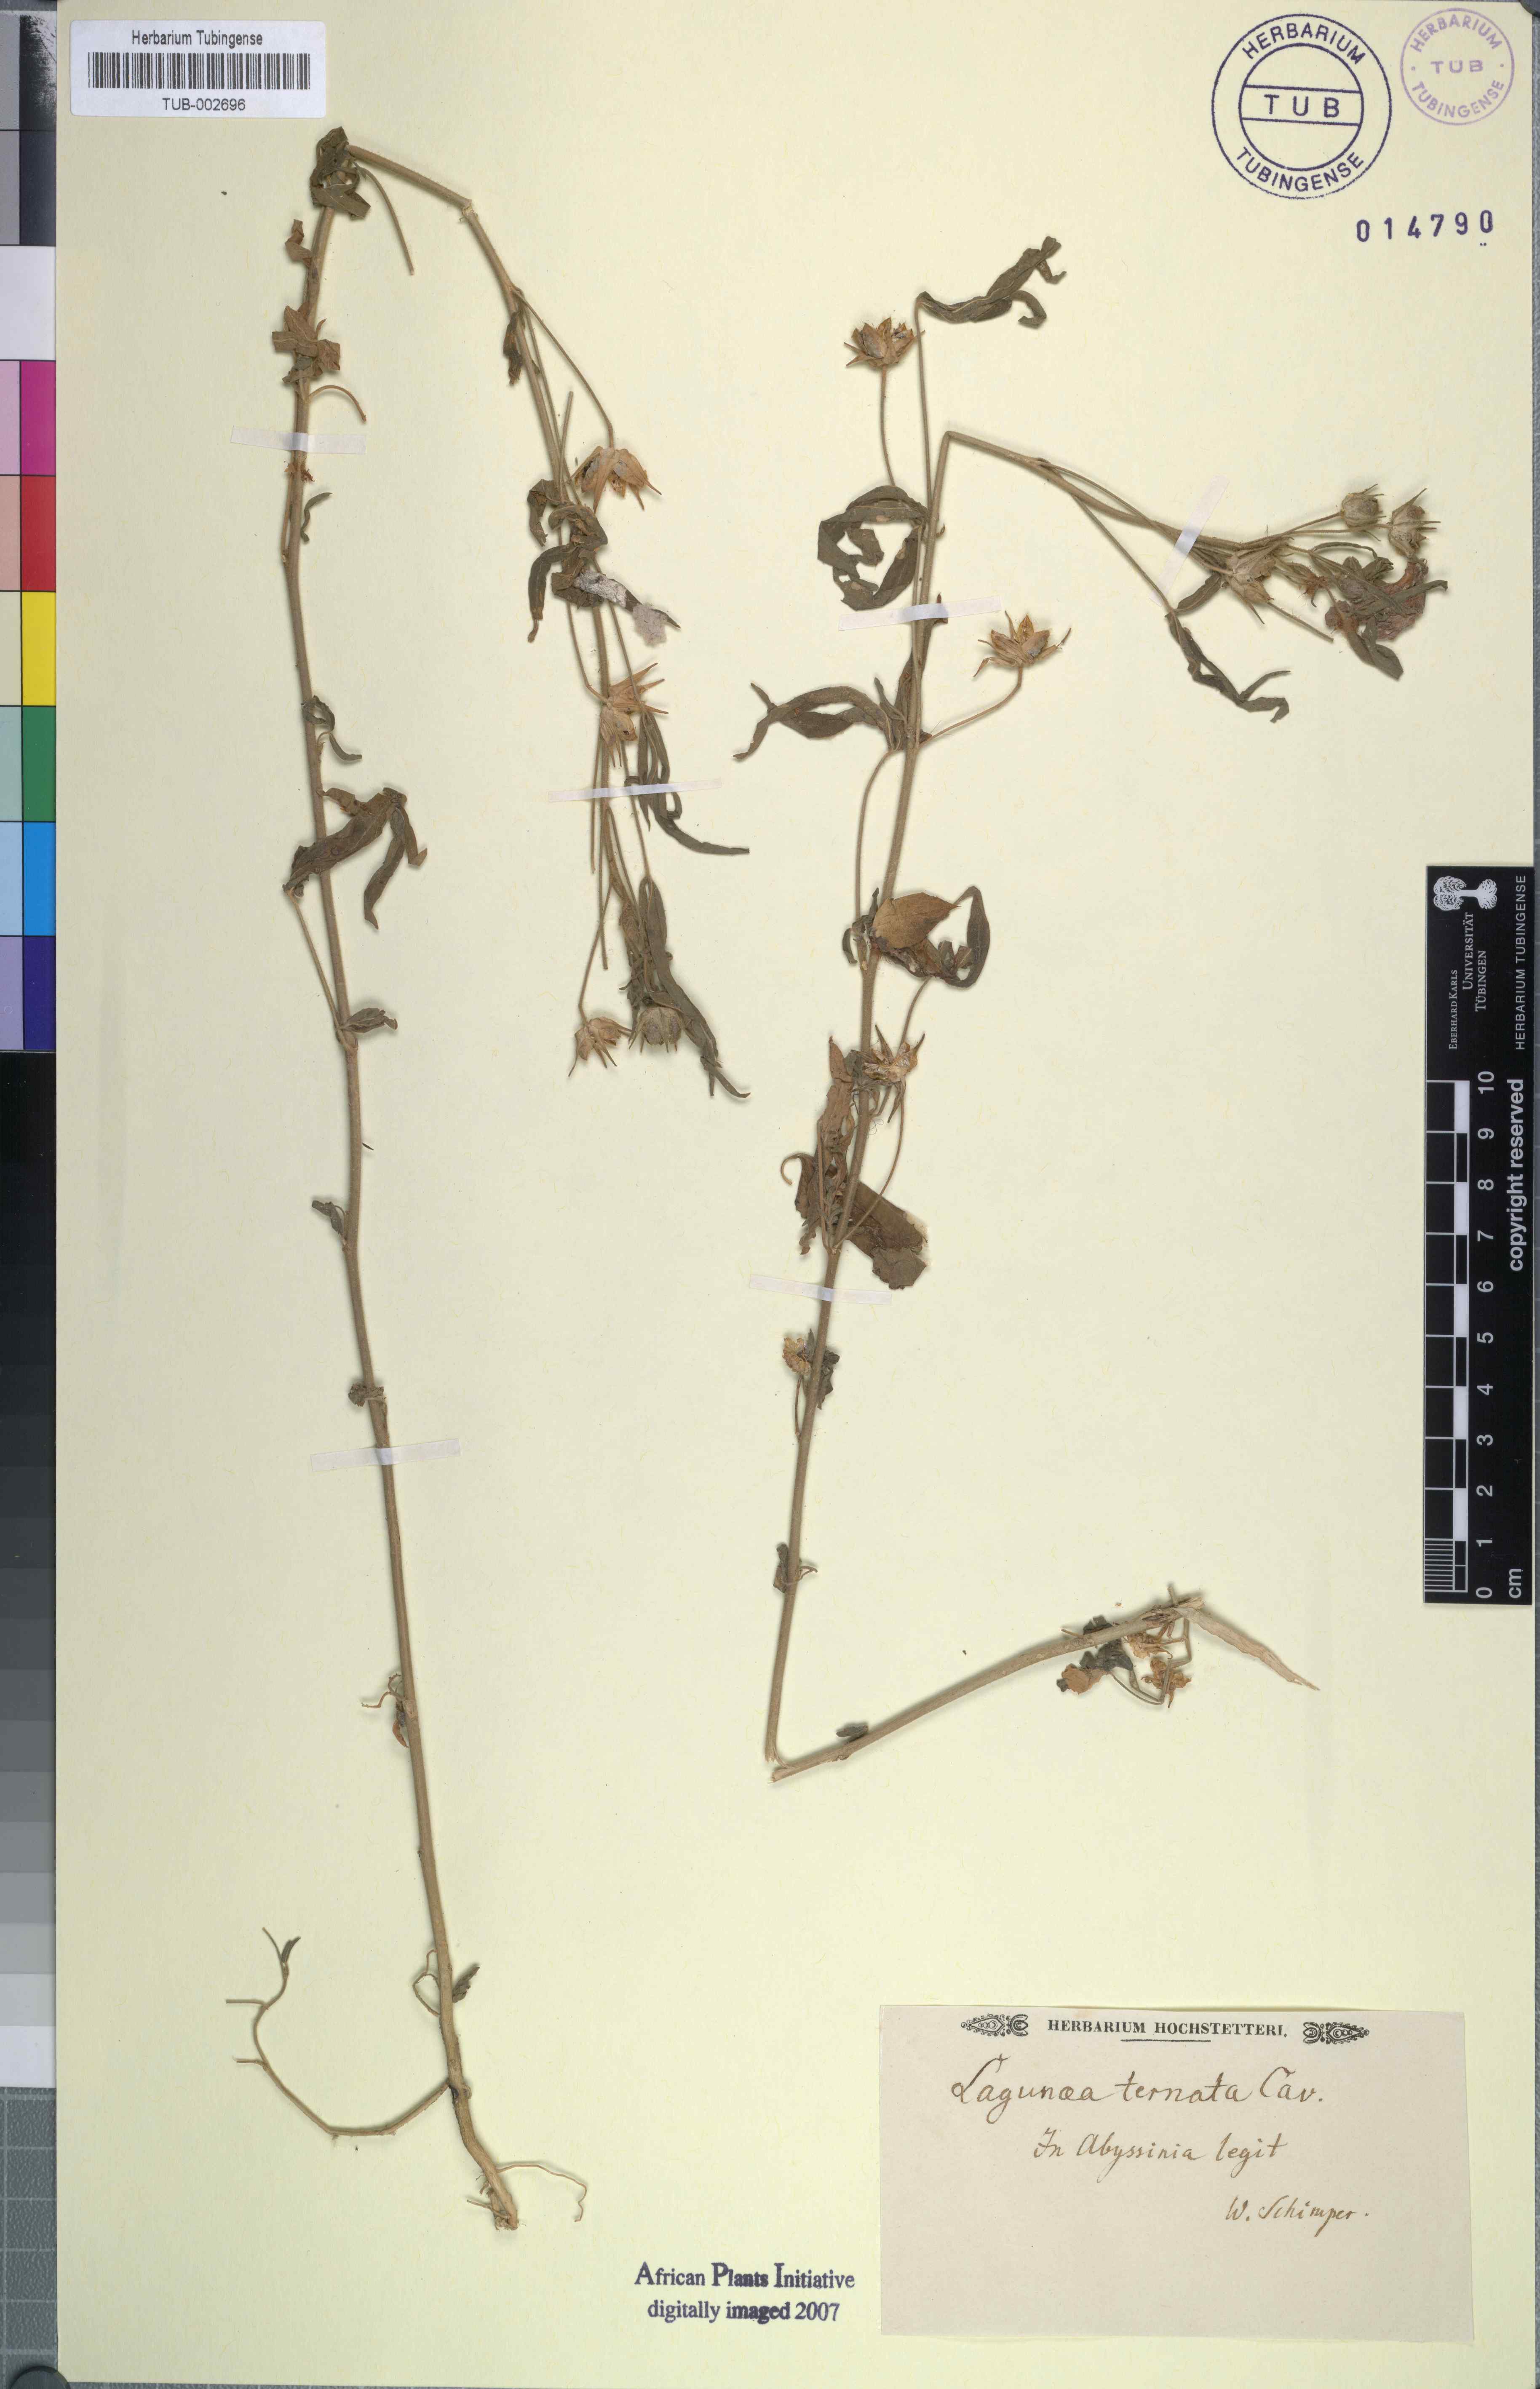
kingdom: Plantae
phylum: Tracheophyta
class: Magnoliopsida
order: Malvales
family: Malvaceae
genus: Hibiscus
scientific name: Hibiscus trionum
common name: Bladder ketmia
